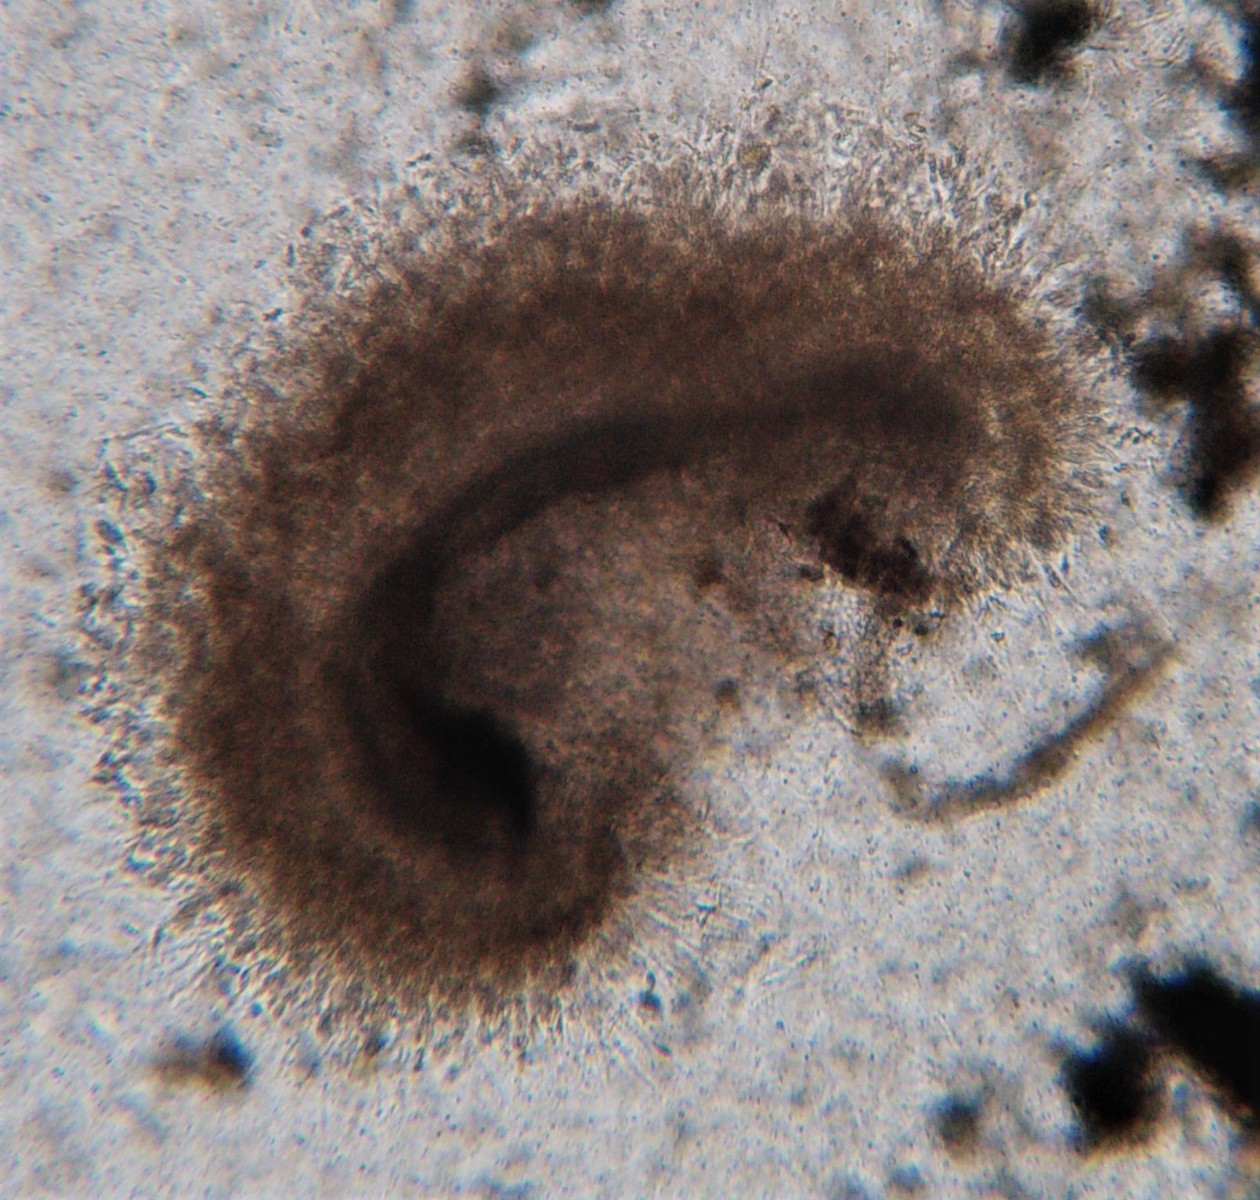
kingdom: Fungi
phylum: Ascomycota
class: Sordariomycetes
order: Xylariales
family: Diatrypaceae
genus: Eutypella
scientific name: Eutypella prunastri
